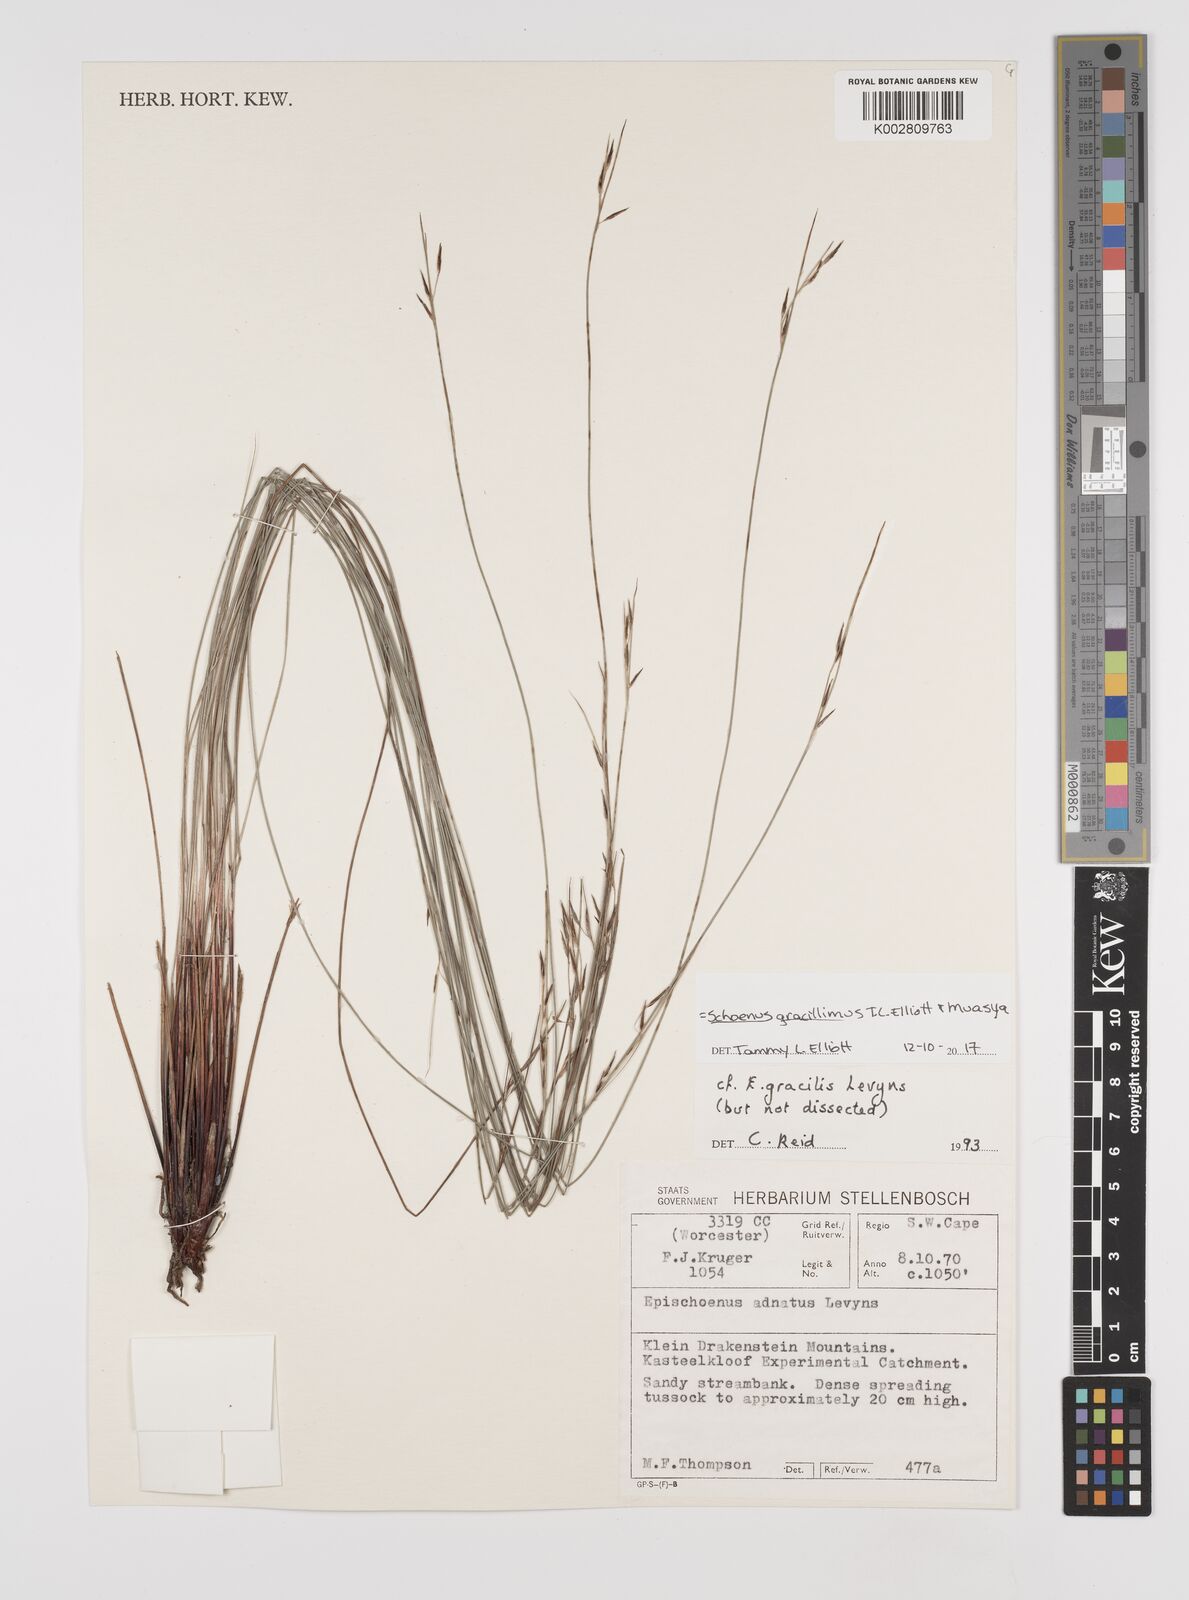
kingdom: Plantae
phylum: Tracheophyta
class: Liliopsida
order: Poales
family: Cyperaceae
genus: Rhynchospora
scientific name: Rhynchospora racemosa
